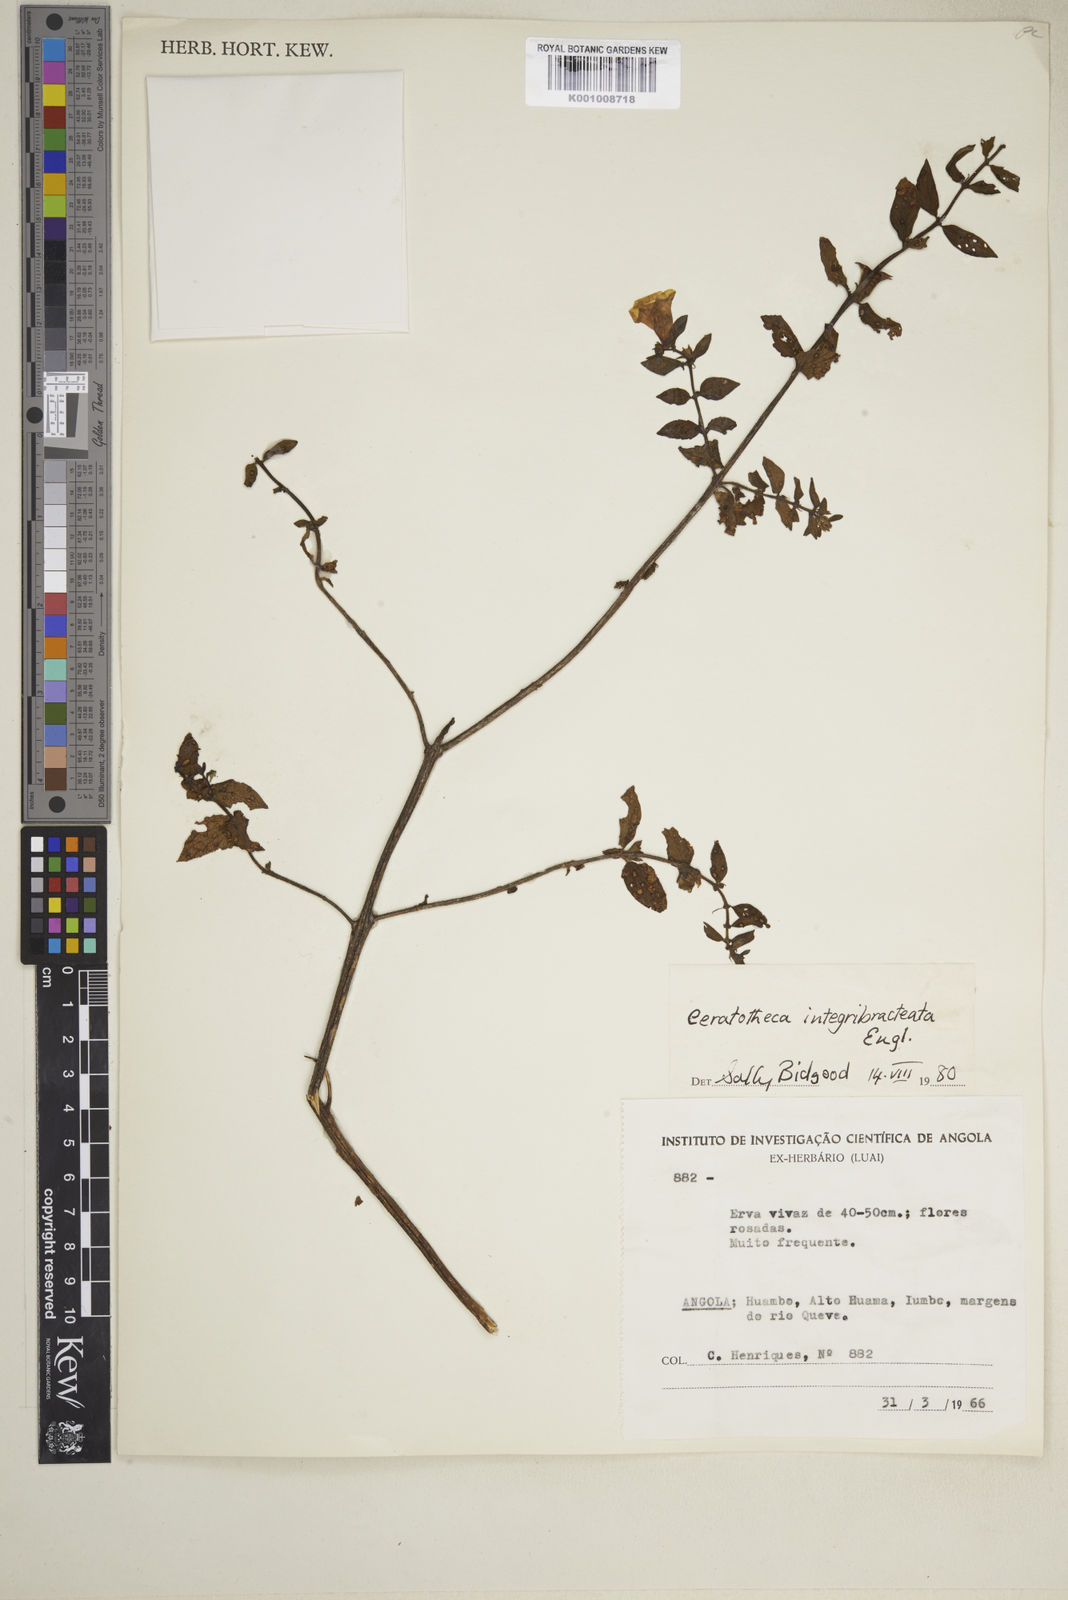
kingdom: Plantae
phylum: Tracheophyta
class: Magnoliopsida
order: Lamiales
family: Pedaliaceae
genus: Sesamum
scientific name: Sesamum integribracteatum
